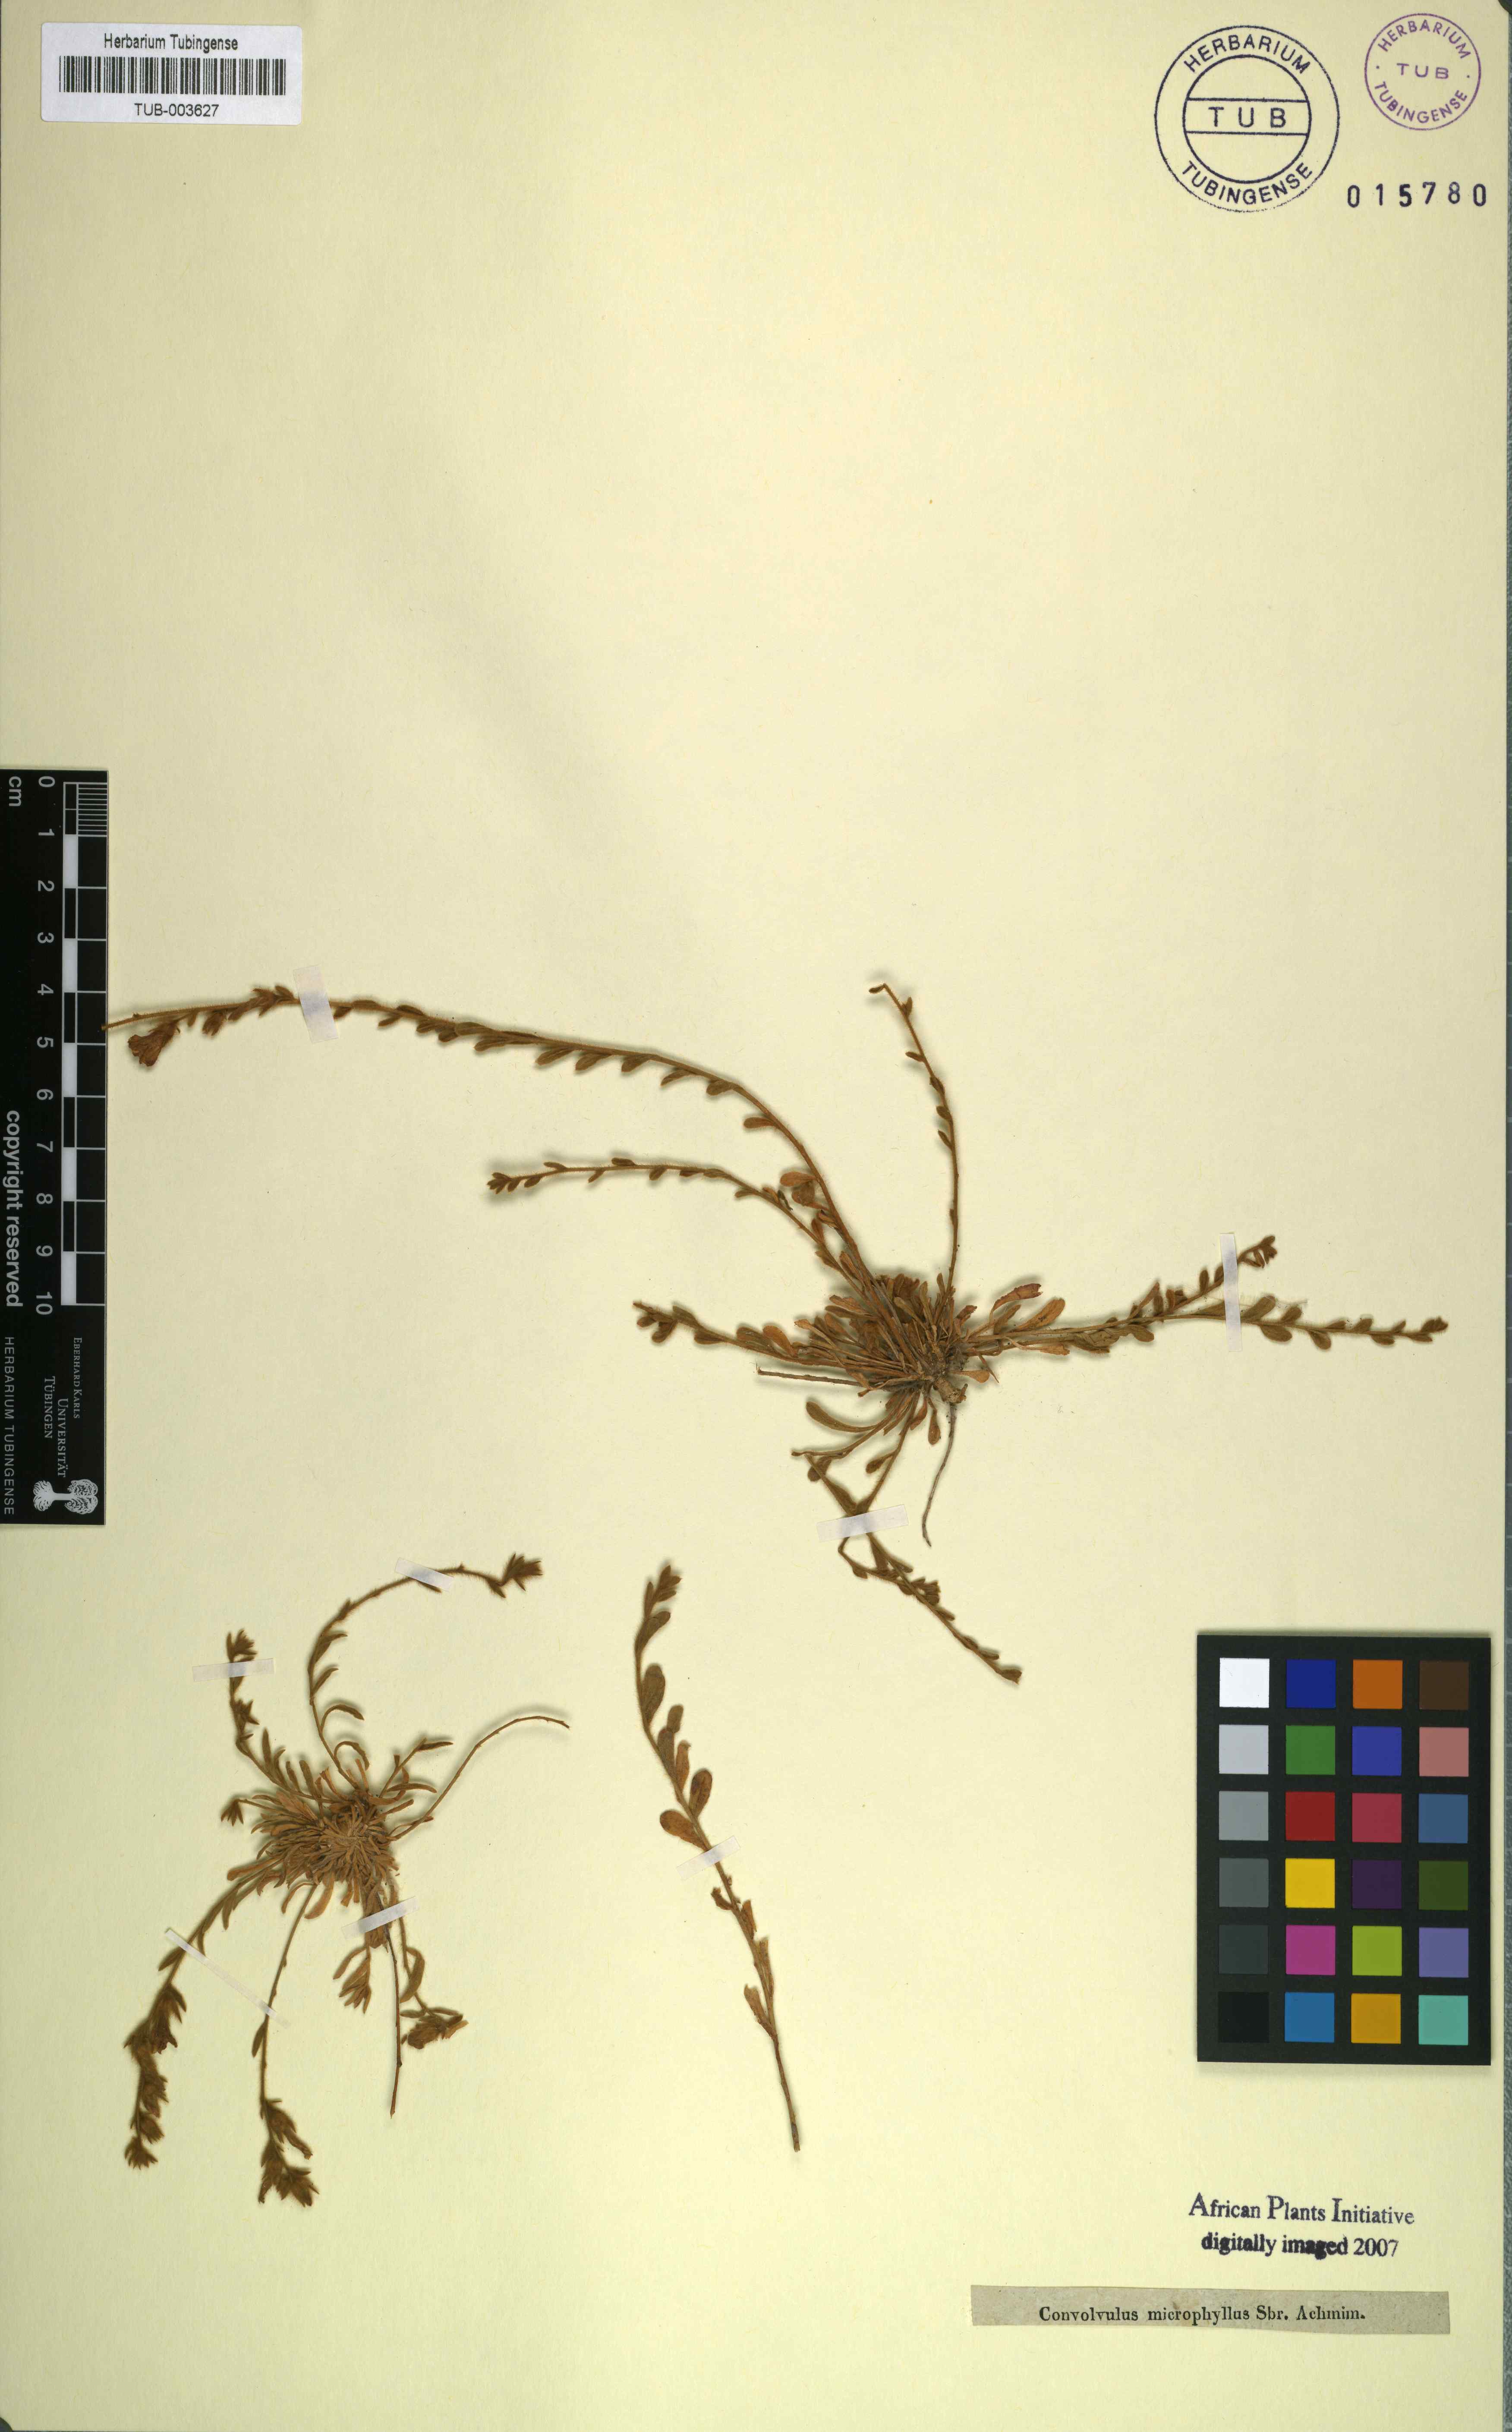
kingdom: Plantae
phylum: Tracheophyta
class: Magnoliopsida
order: Solanales
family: Convolvulaceae
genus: Convolvulus
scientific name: Convolvulus prostratus
